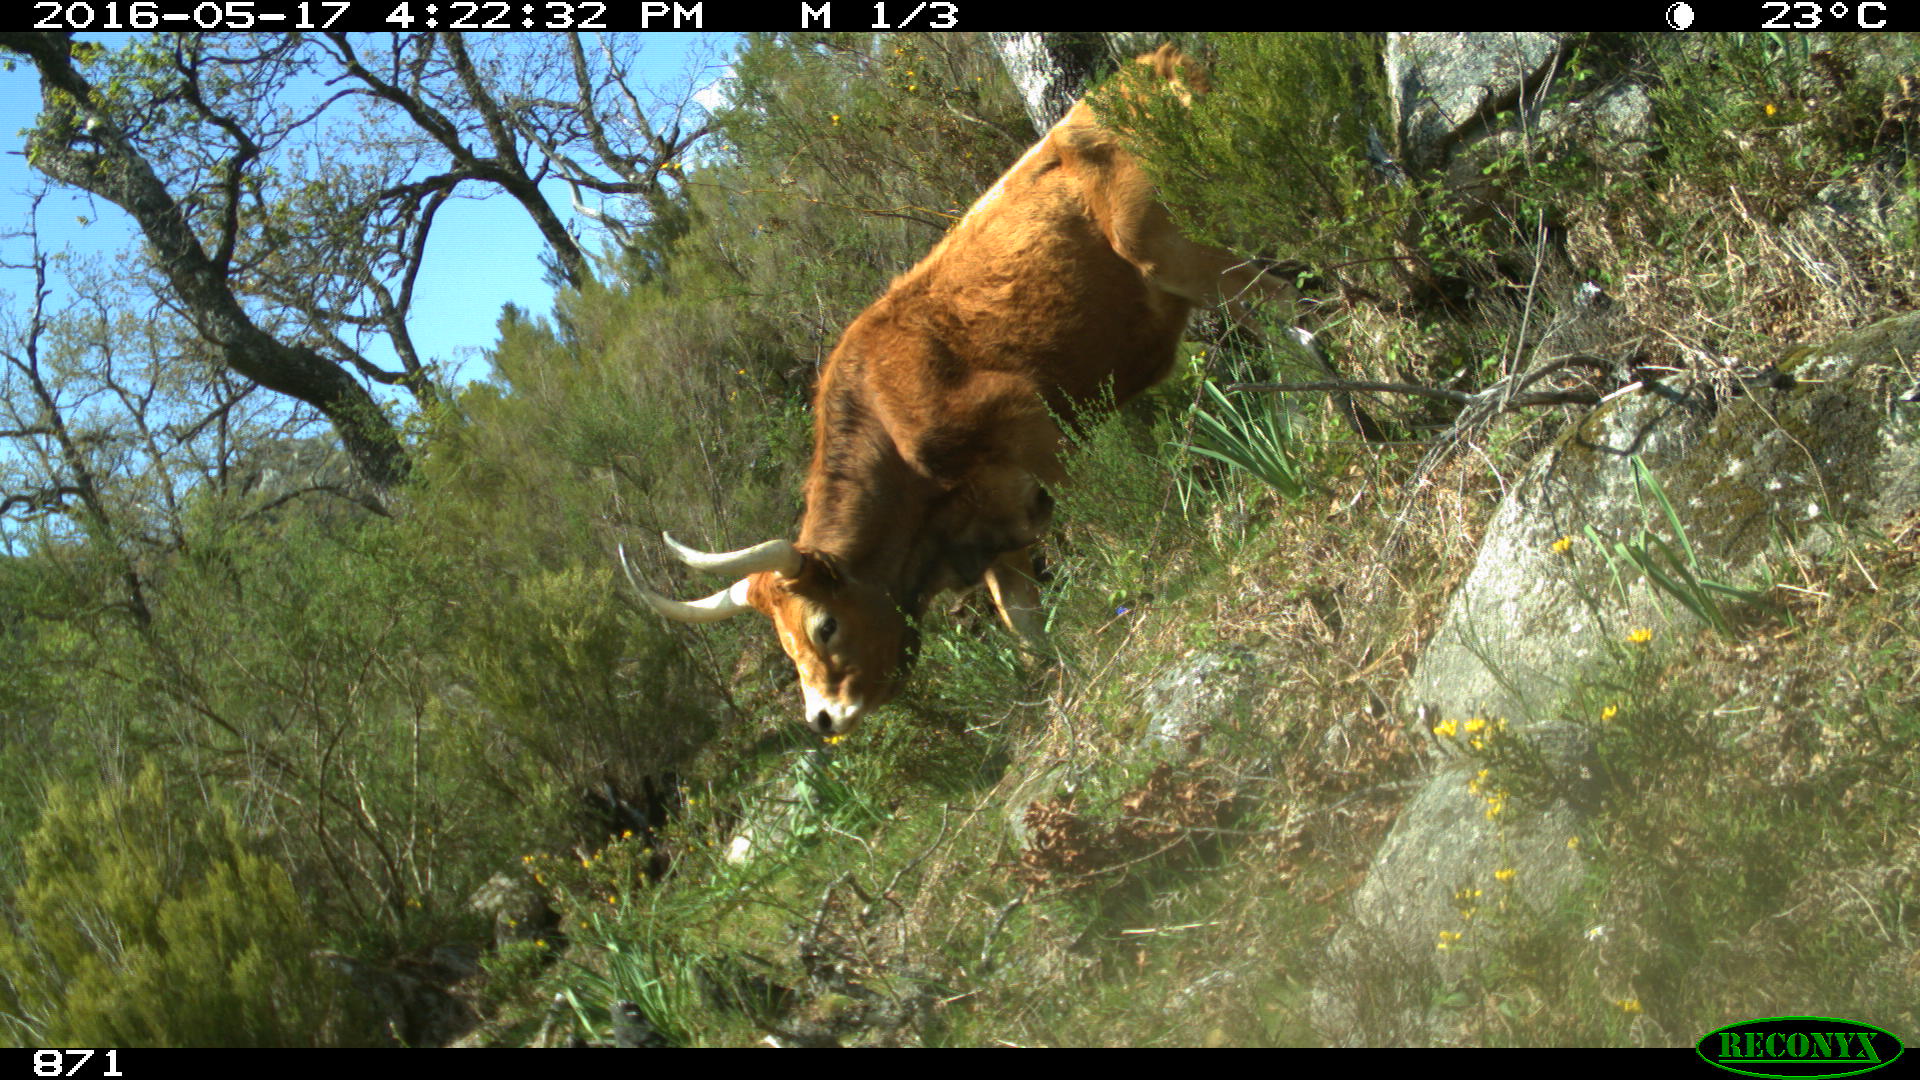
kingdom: Animalia
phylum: Chordata
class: Mammalia
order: Artiodactyla
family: Bovidae
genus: Bos
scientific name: Bos taurus
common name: Domesticated cattle
